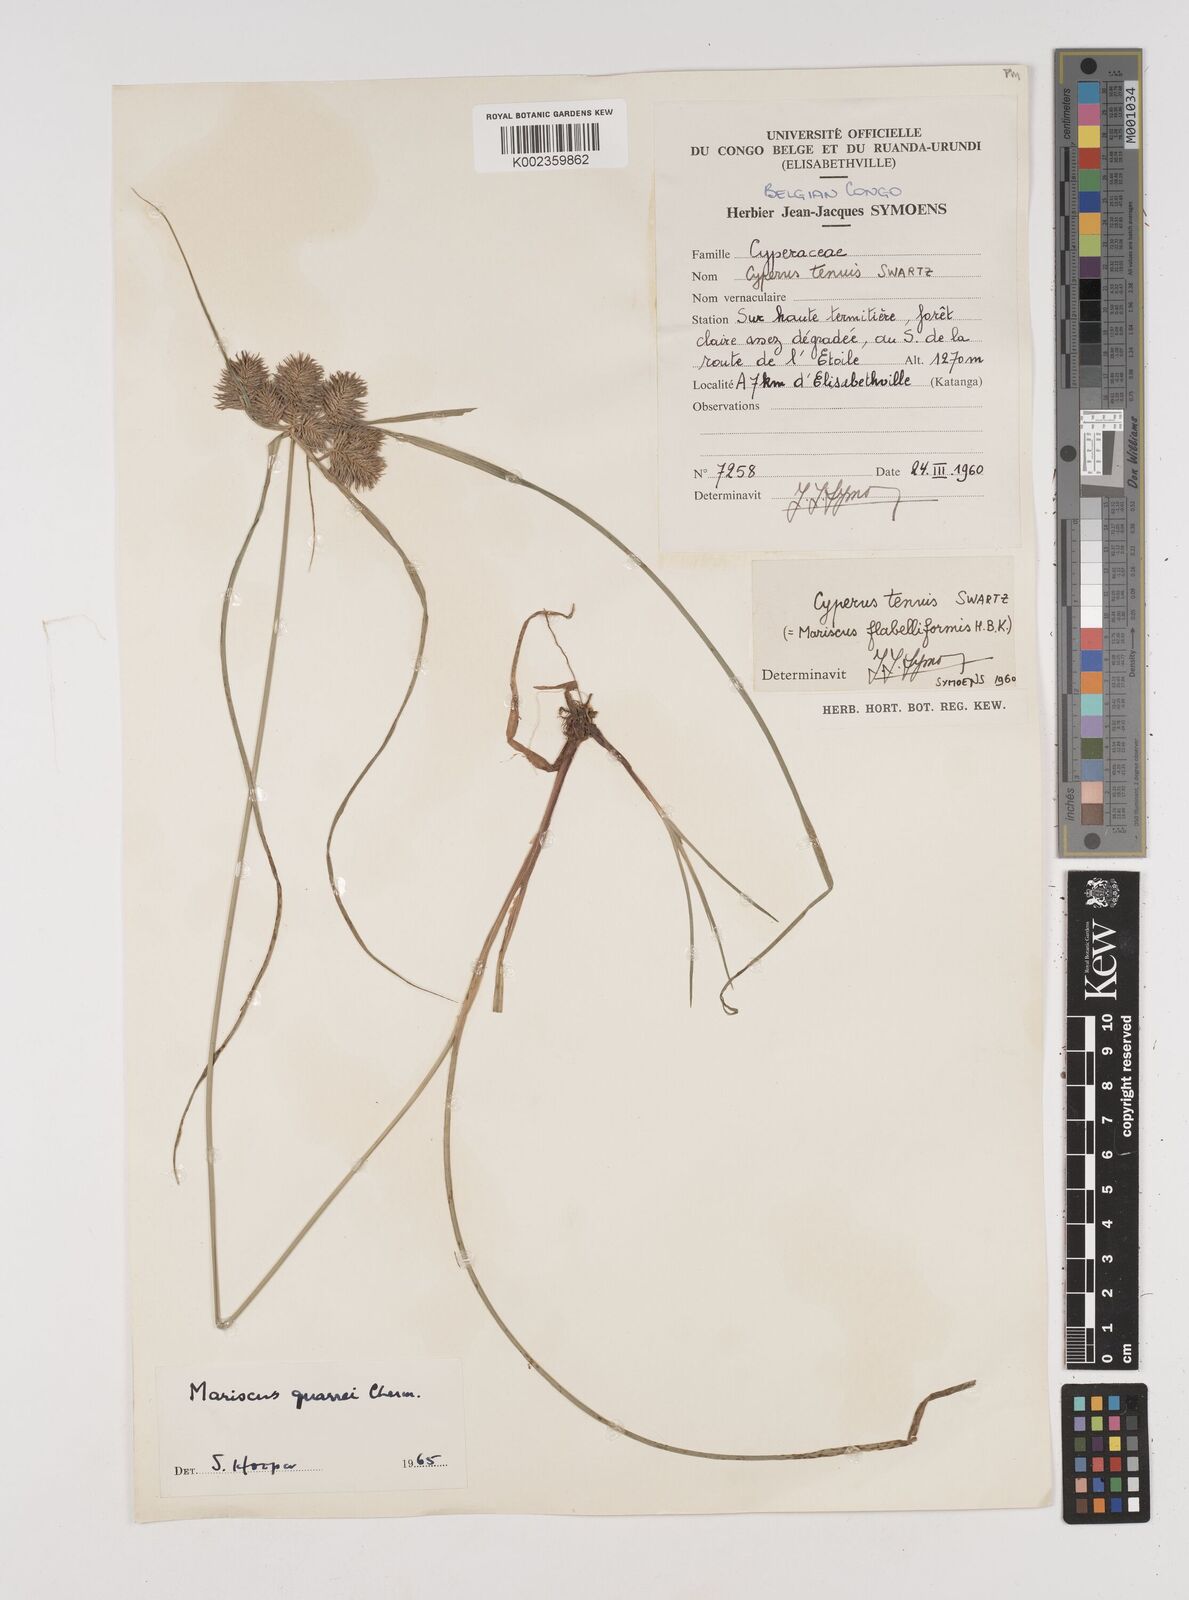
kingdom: Plantae
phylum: Tracheophyta
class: Liliopsida
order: Poales
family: Cyperaceae
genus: Cyperus
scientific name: Cyperus tenuis
